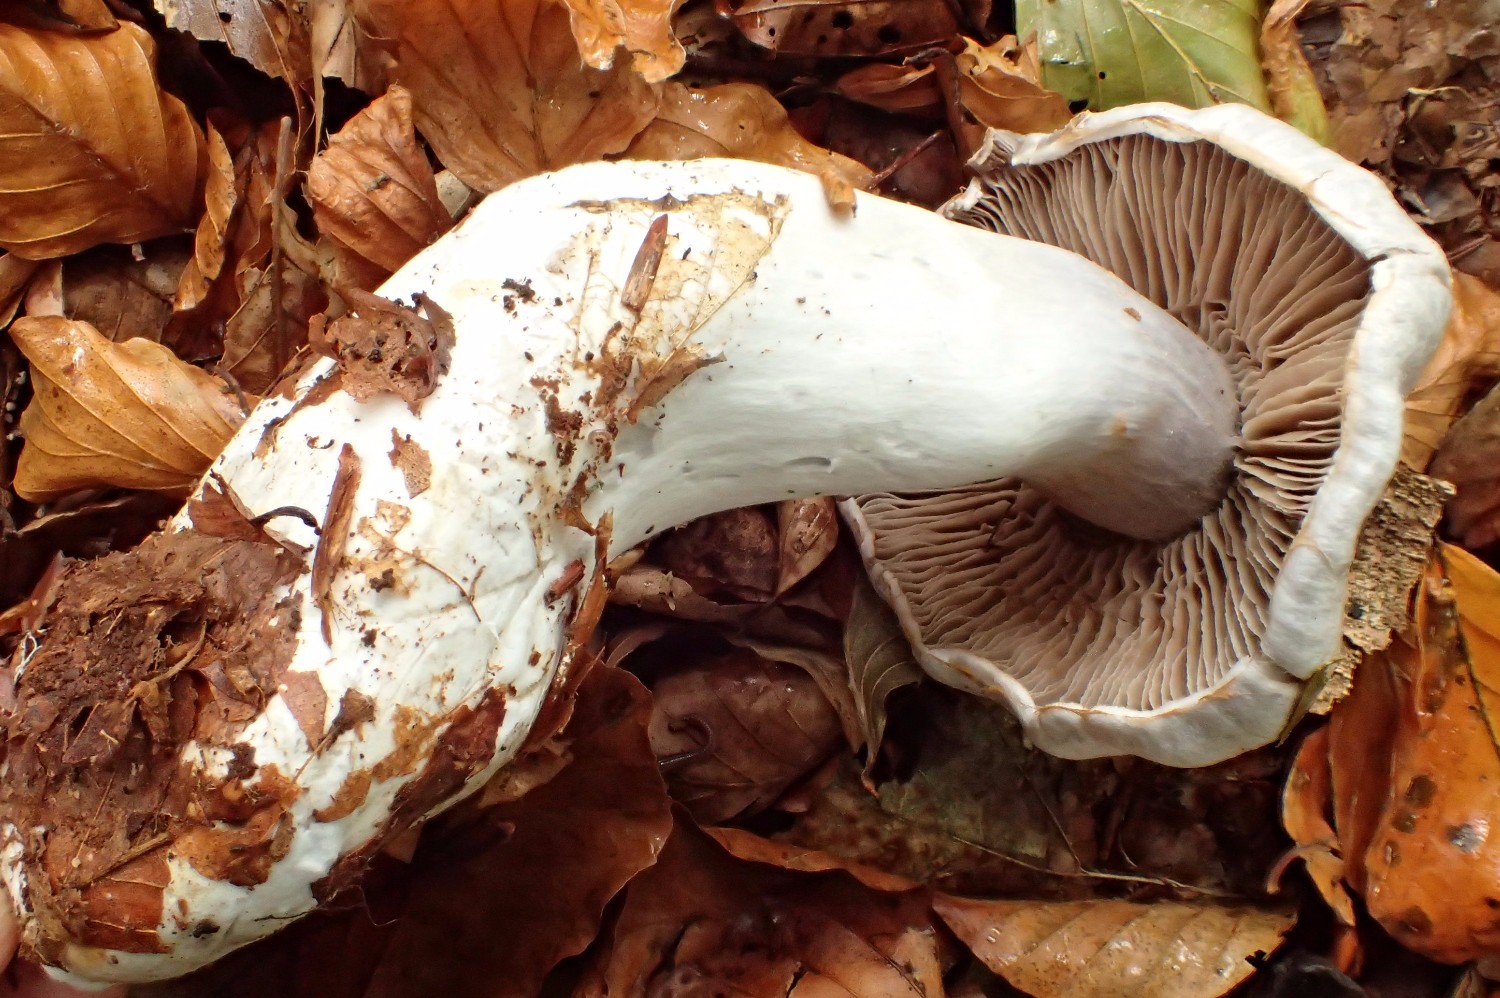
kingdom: Fungi
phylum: Basidiomycota
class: Agaricomycetes
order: Agaricales
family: Cortinariaceae
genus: Cortinarius
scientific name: Cortinarius alboviolaceus
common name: lysviolet slørhat
